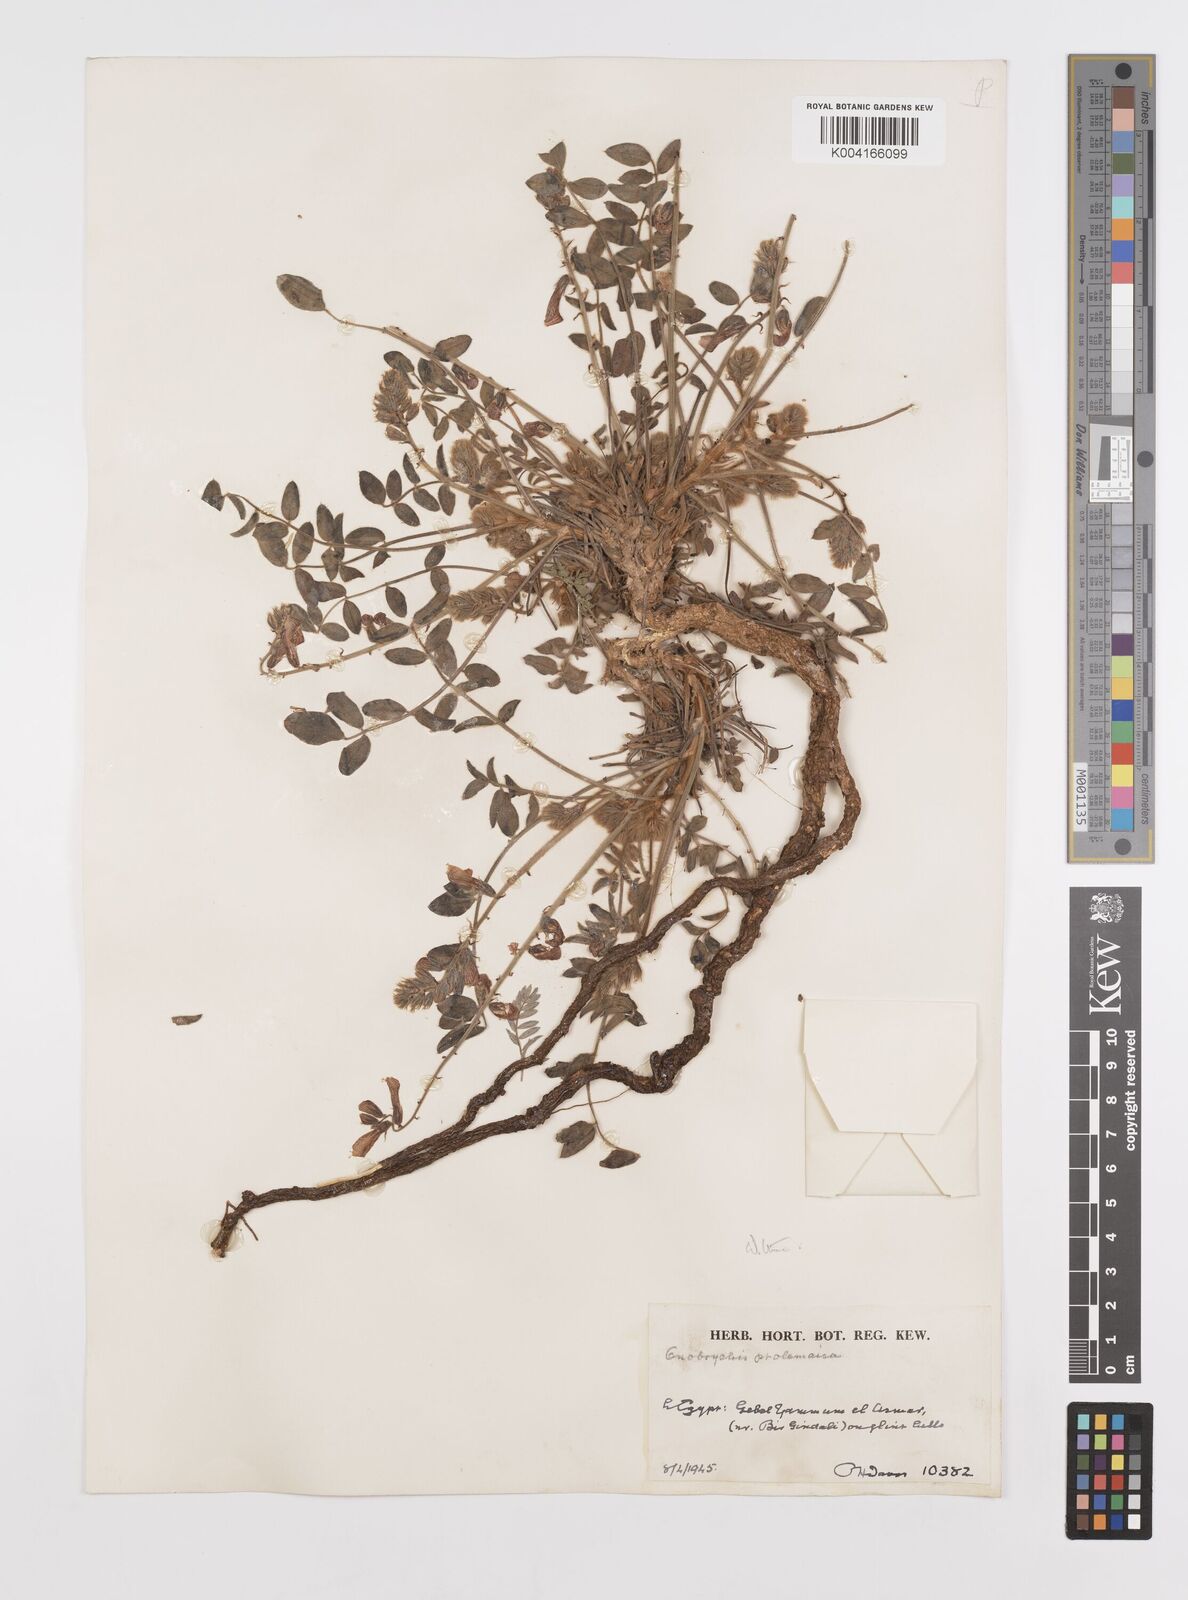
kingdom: Plantae
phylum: Tracheophyta
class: Magnoliopsida
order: Fabales
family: Fabaceae
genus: Onobrychis
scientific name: Onobrychis ptolemaica
